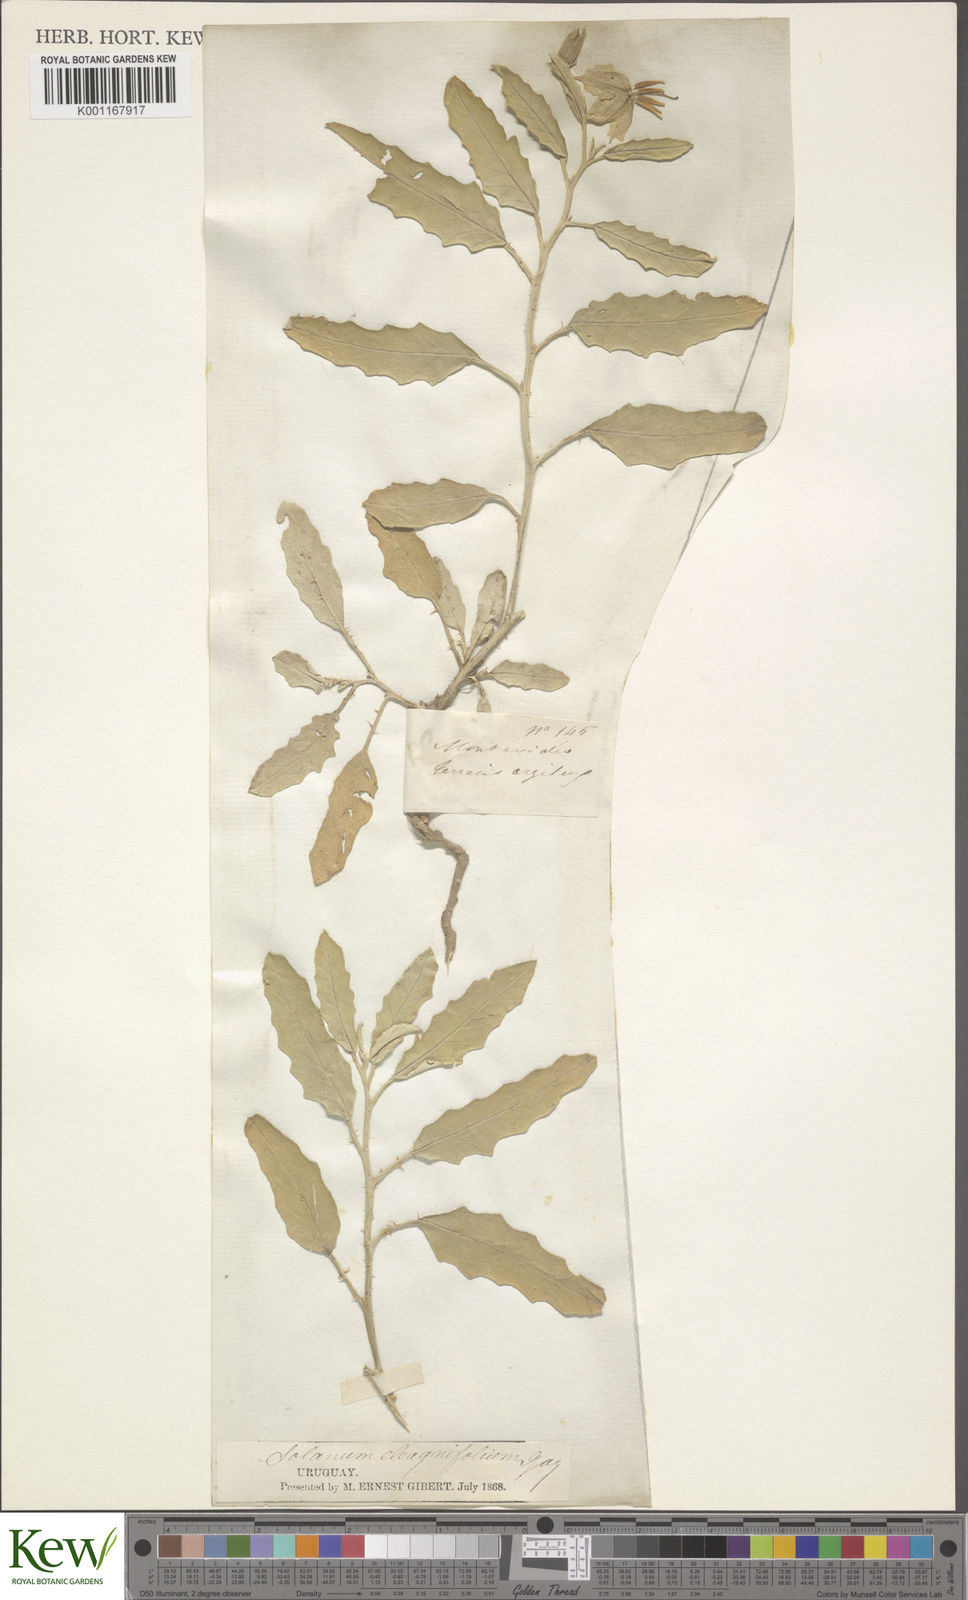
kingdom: Plantae
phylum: Tracheophyta
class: Magnoliopsida
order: Solanales
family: Solanaceae
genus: Solanum
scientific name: Solanum elaeagnifolium
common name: Silverleaf nightshade
